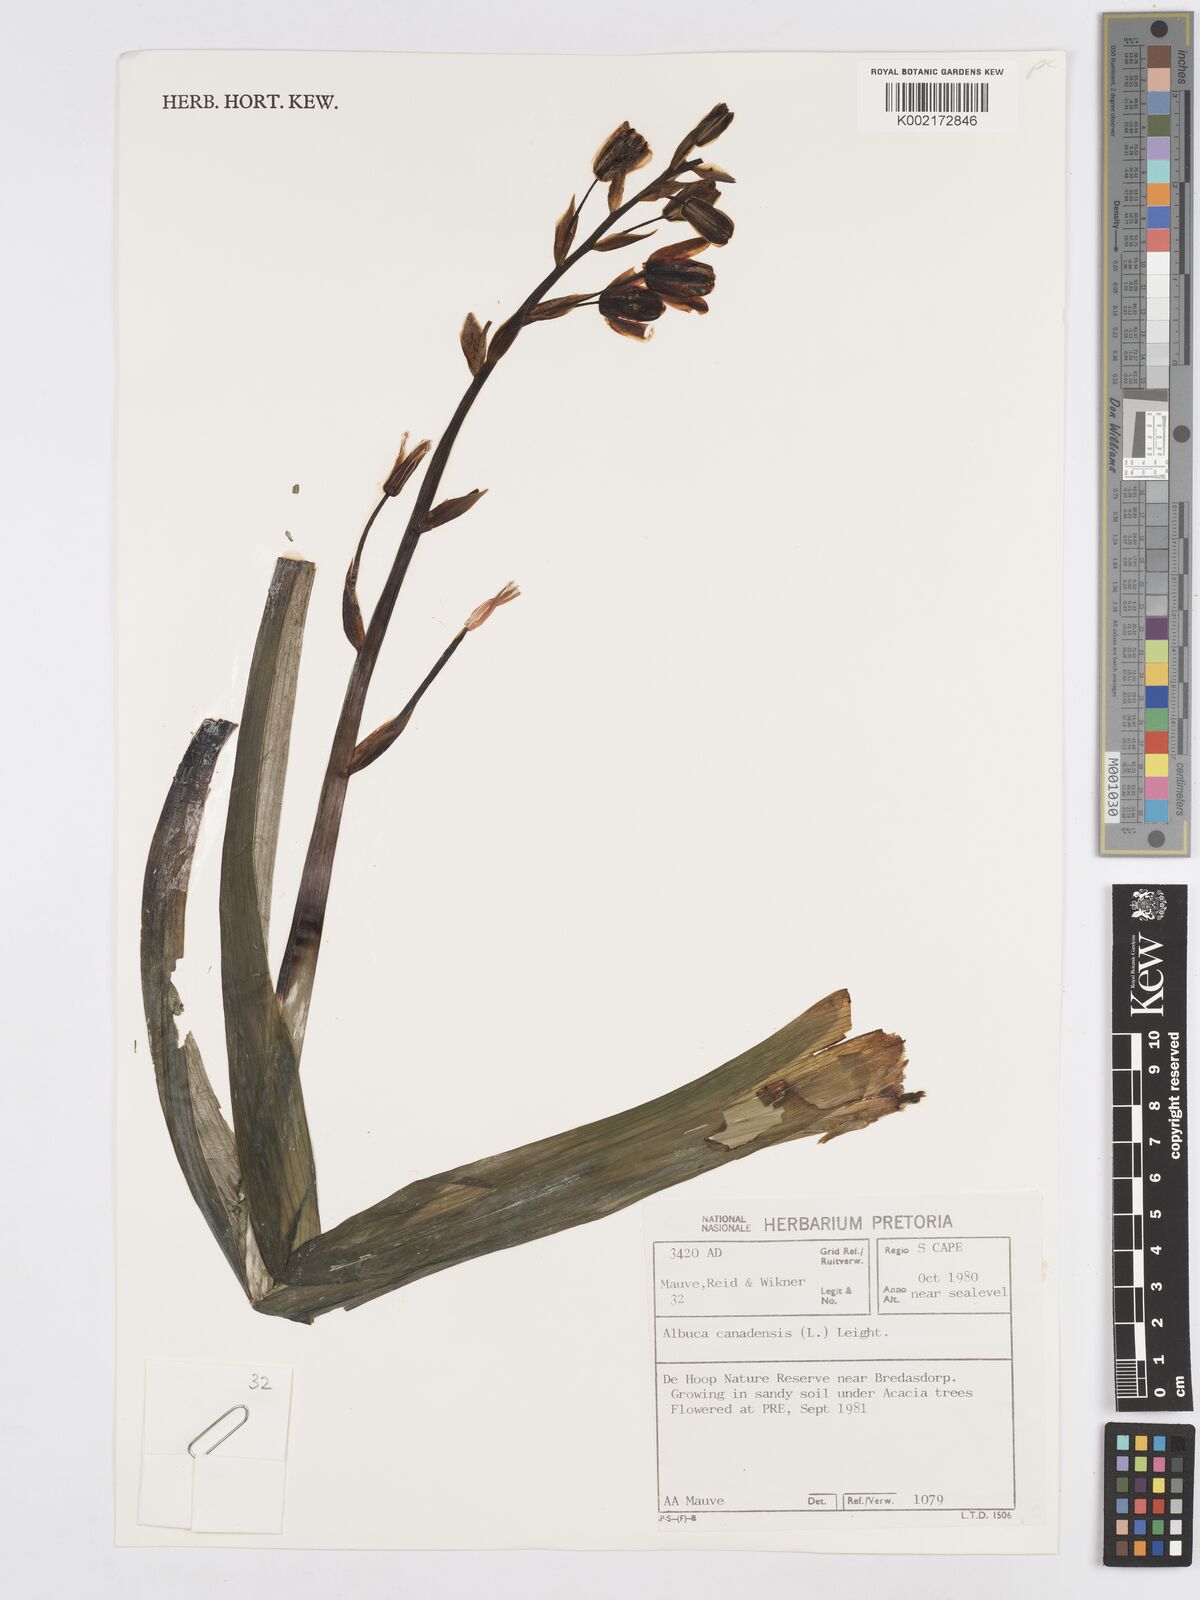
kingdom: Plantae
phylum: Tracheophyta
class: Liliopsida
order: Asparagales
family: Asparagaceae
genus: Albuca
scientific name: Albuca canadensis
